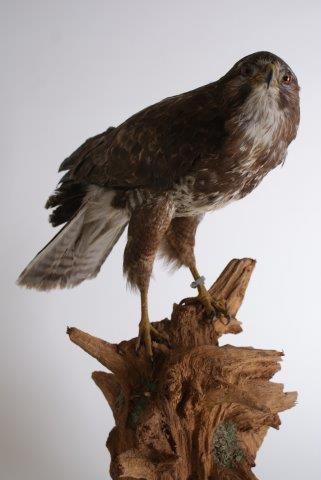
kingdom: Animalia
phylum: Chordata
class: Aves
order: Accipitriformes
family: Accipitridae
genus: Buteo
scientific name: Buteo buteo
